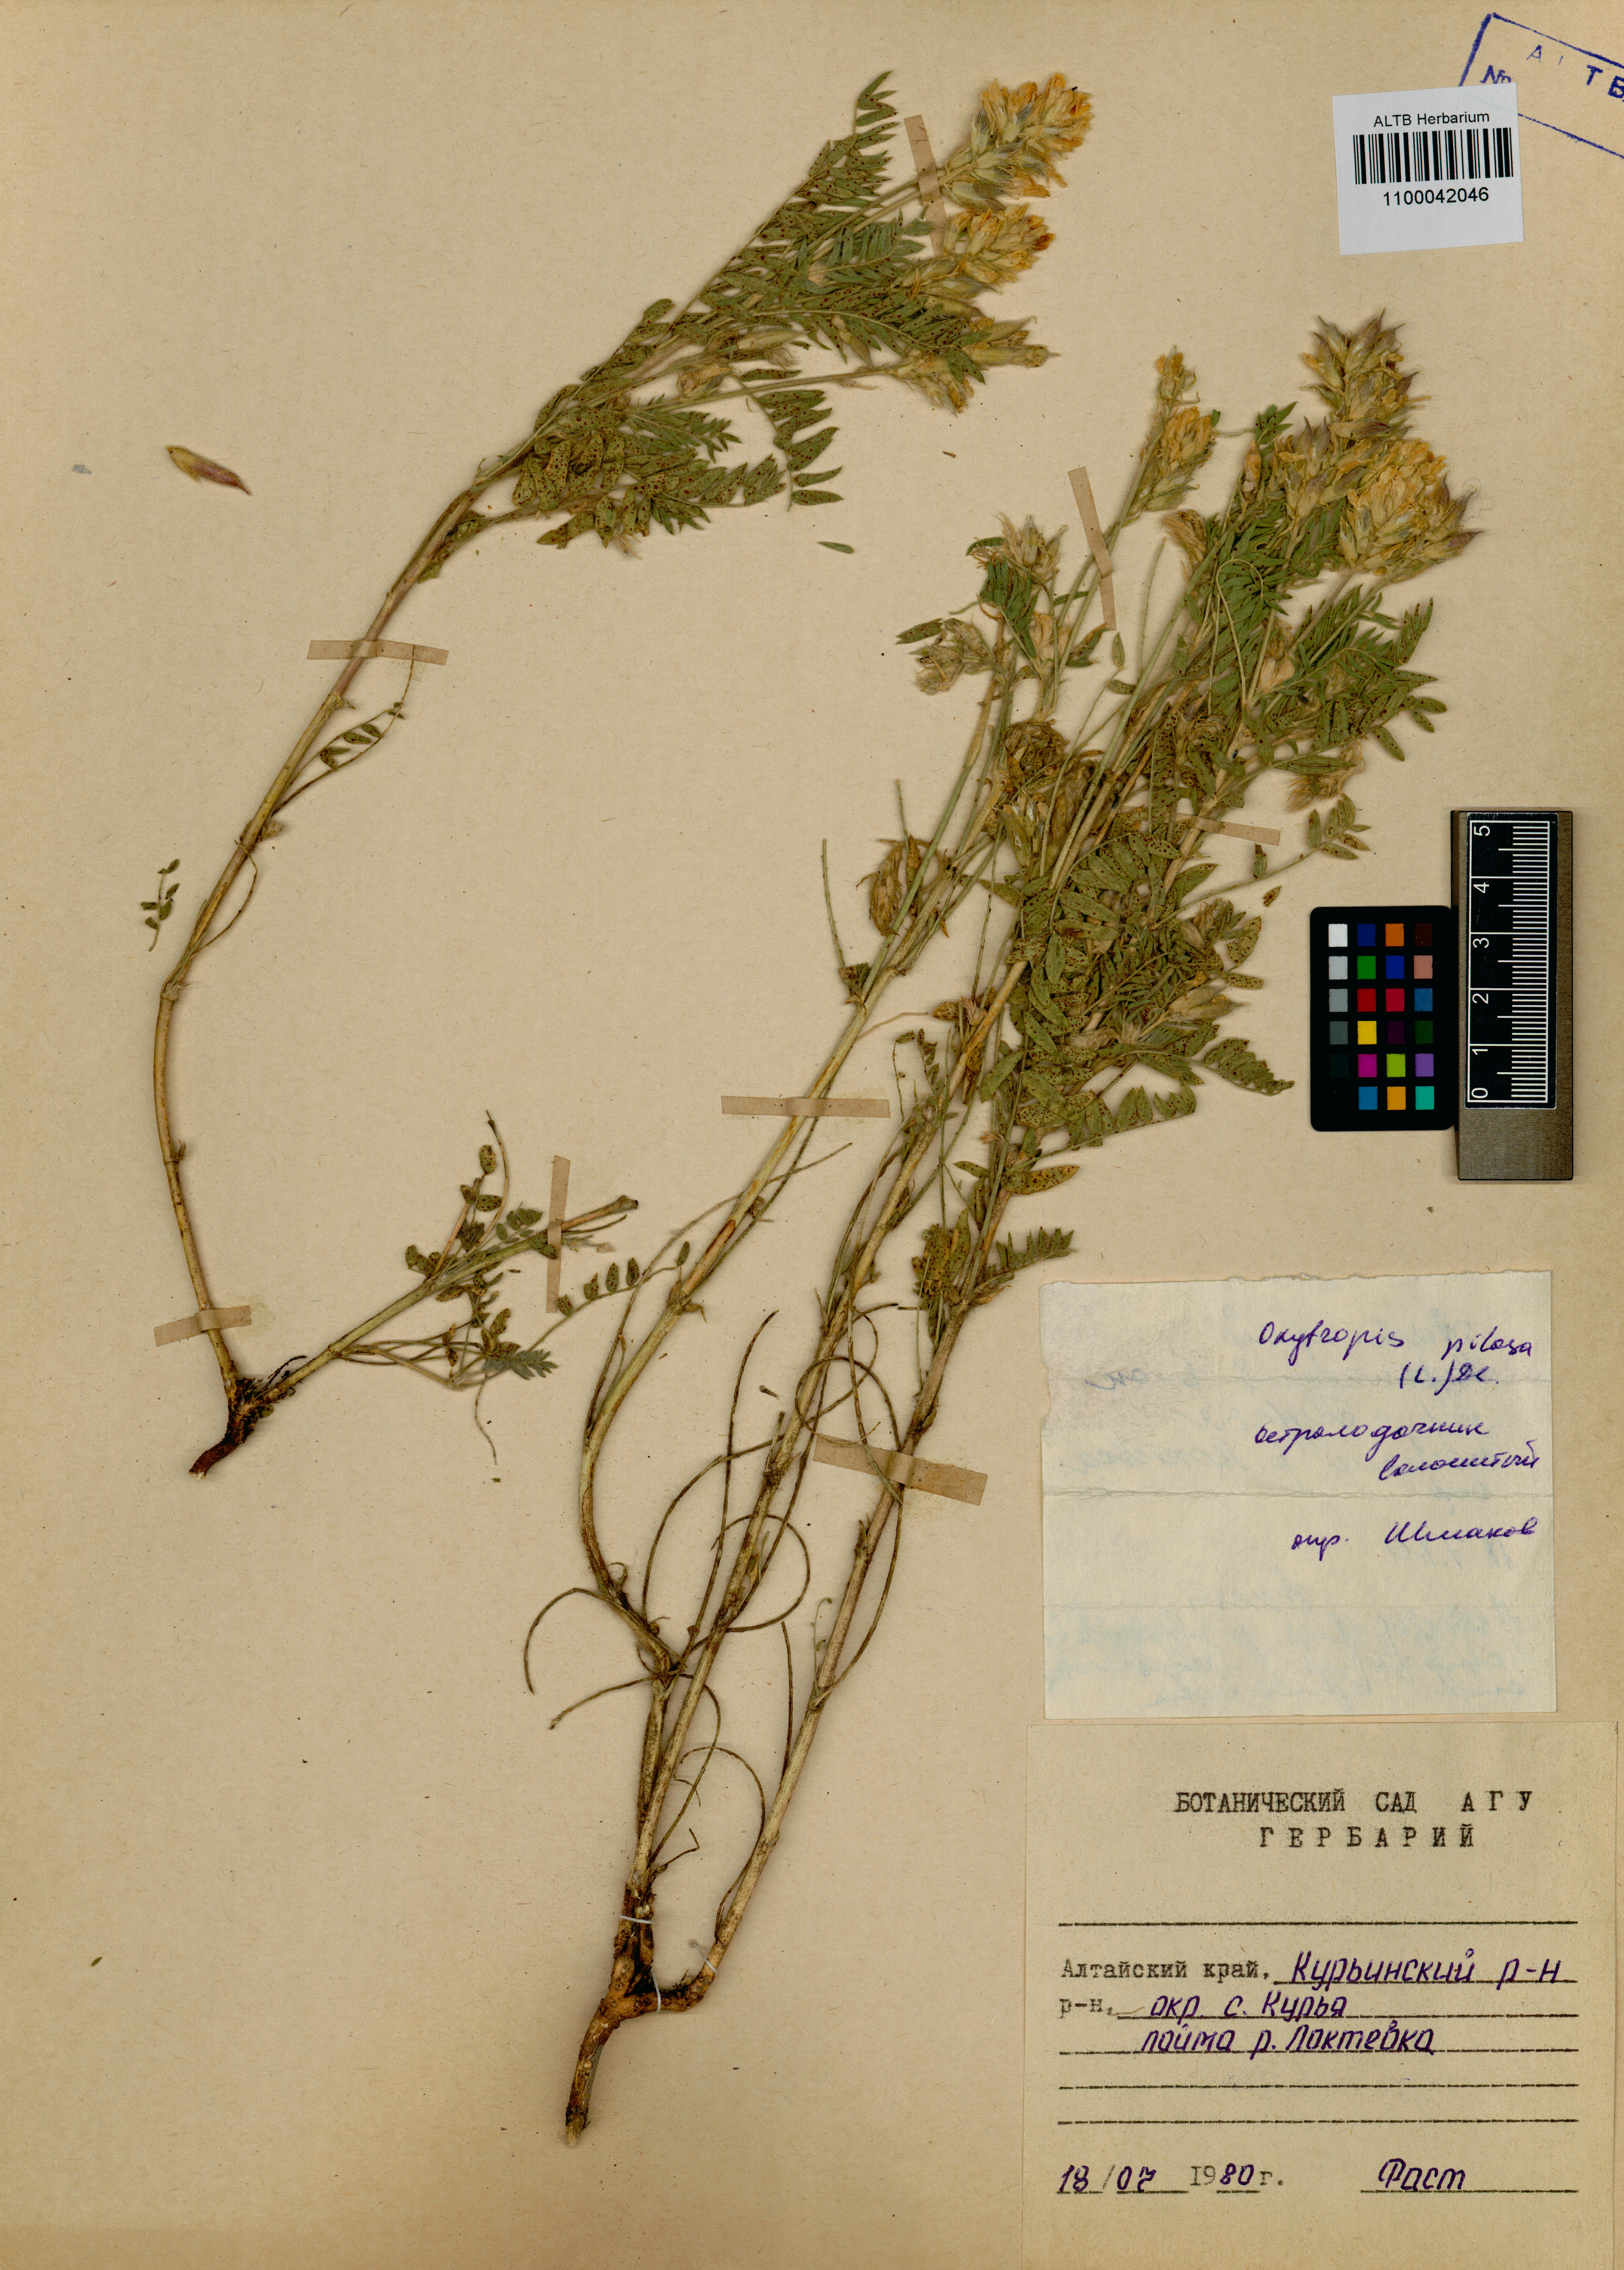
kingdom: Plantae
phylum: Tracheophyta
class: Magnoliopsida
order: Fabales
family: Fabaceae
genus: Oxytropis
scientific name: Oxytropis pilosa
